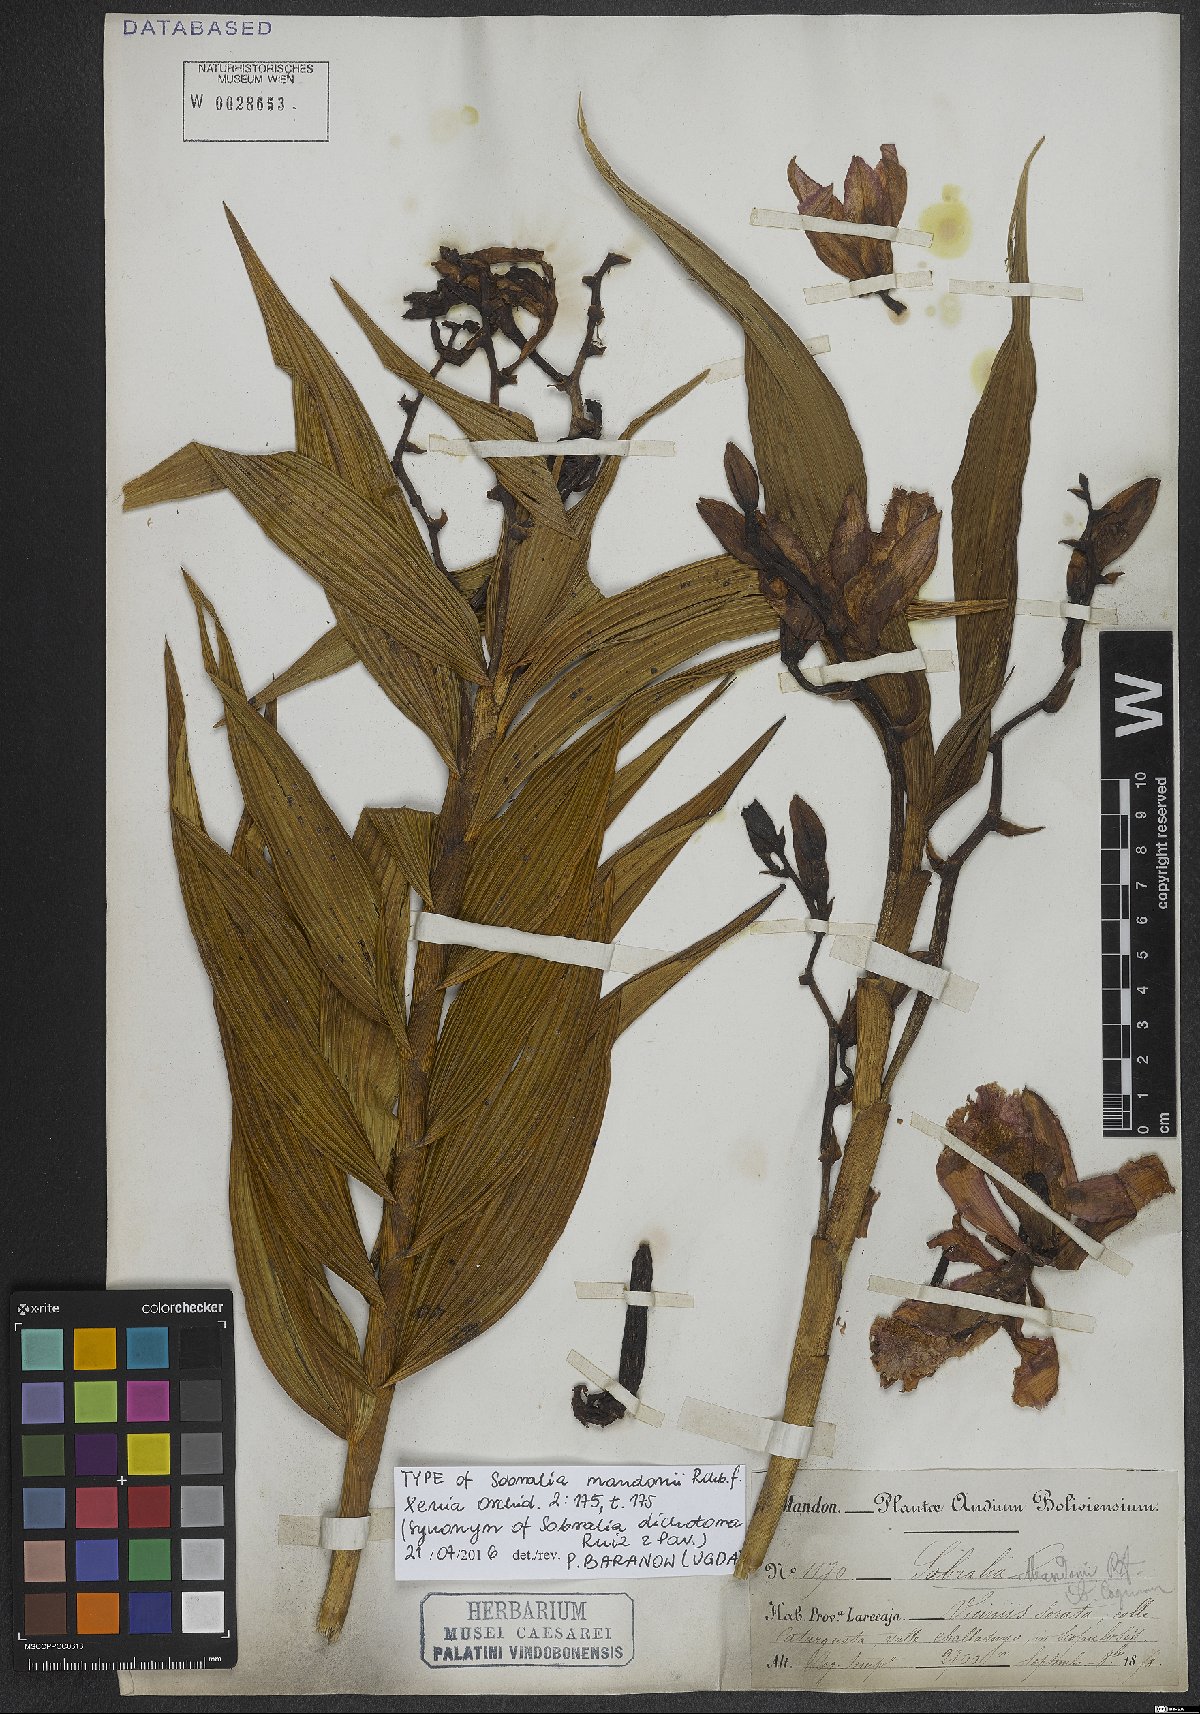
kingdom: Plantae
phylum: Tracheophyta
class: Liliopsida
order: Asparagales
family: Orchidaceae
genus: Sobralia
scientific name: Sobralia dichotoma
